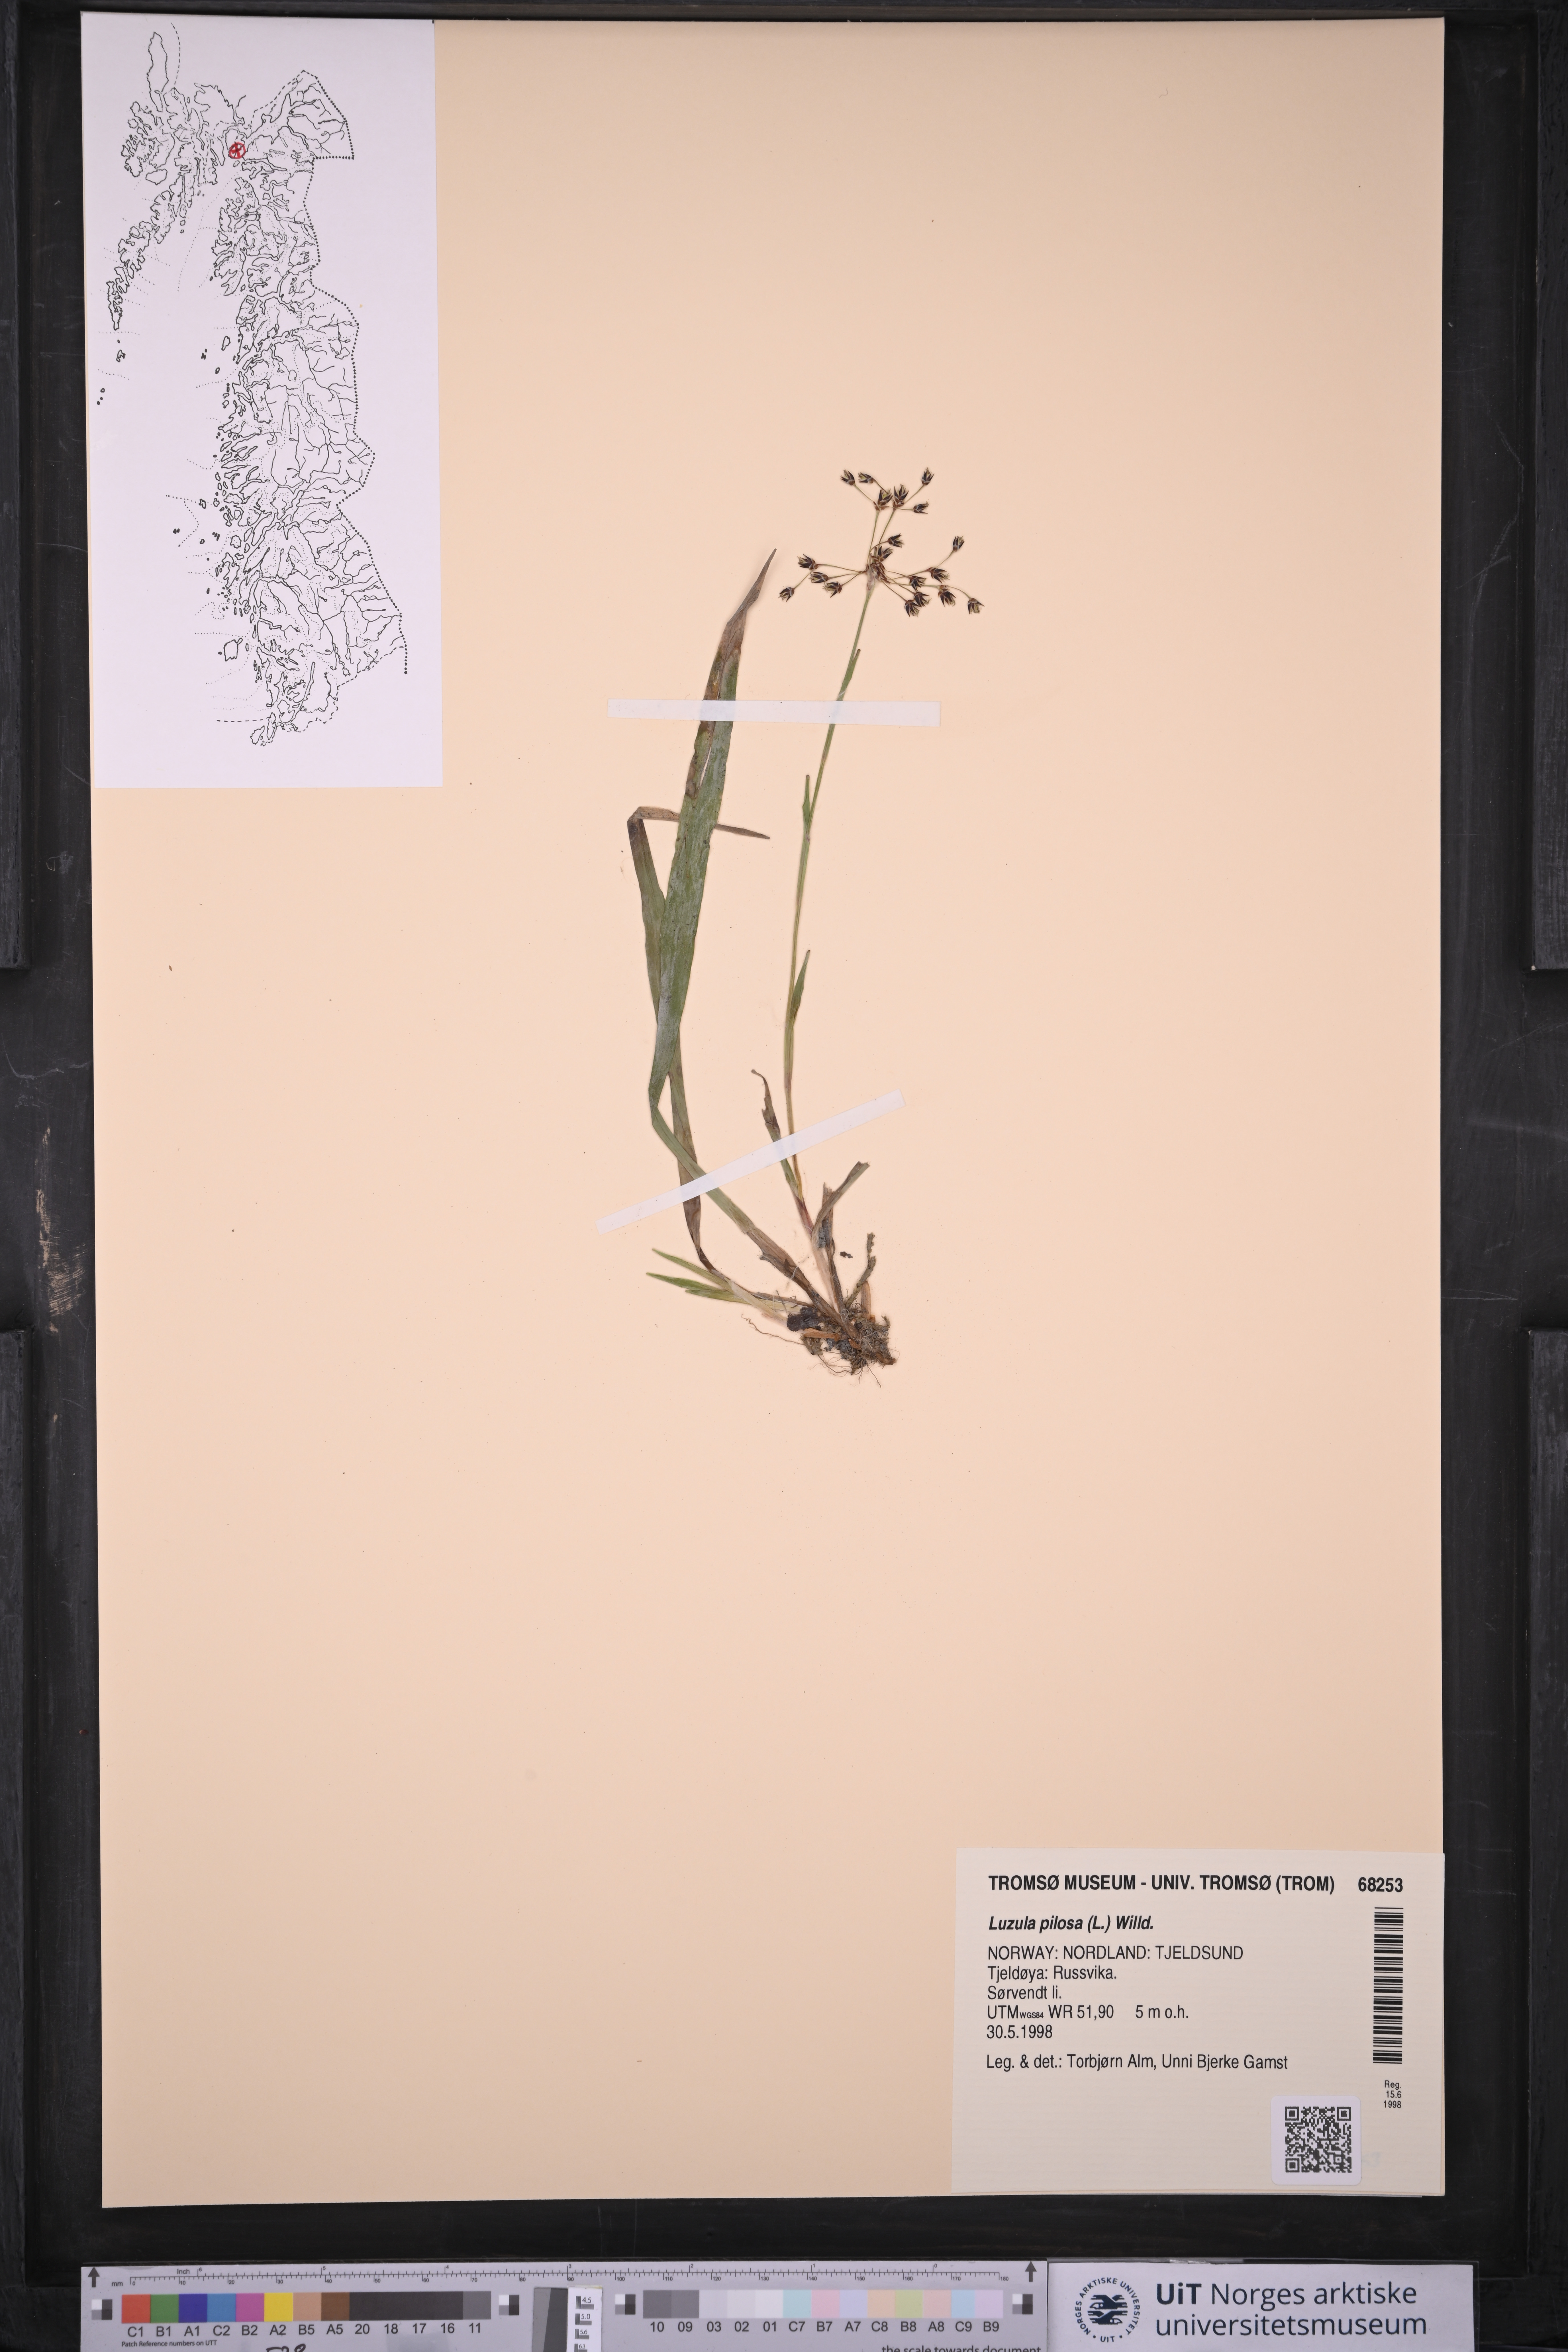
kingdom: Plantae
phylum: Tracheophyta
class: Liliopsida
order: Poales
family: Juncaceae
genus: Luzula
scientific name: Luzula pilosa
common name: Hairy wood-rush
